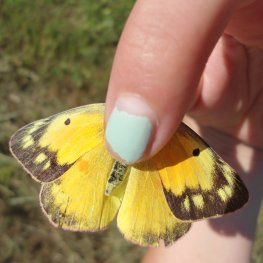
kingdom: Animalia
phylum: Arthropoda
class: Insecta
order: Lepidoptera
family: Pieridae
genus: Colias
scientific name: Colias eurytheme
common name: Orange Sulphur
